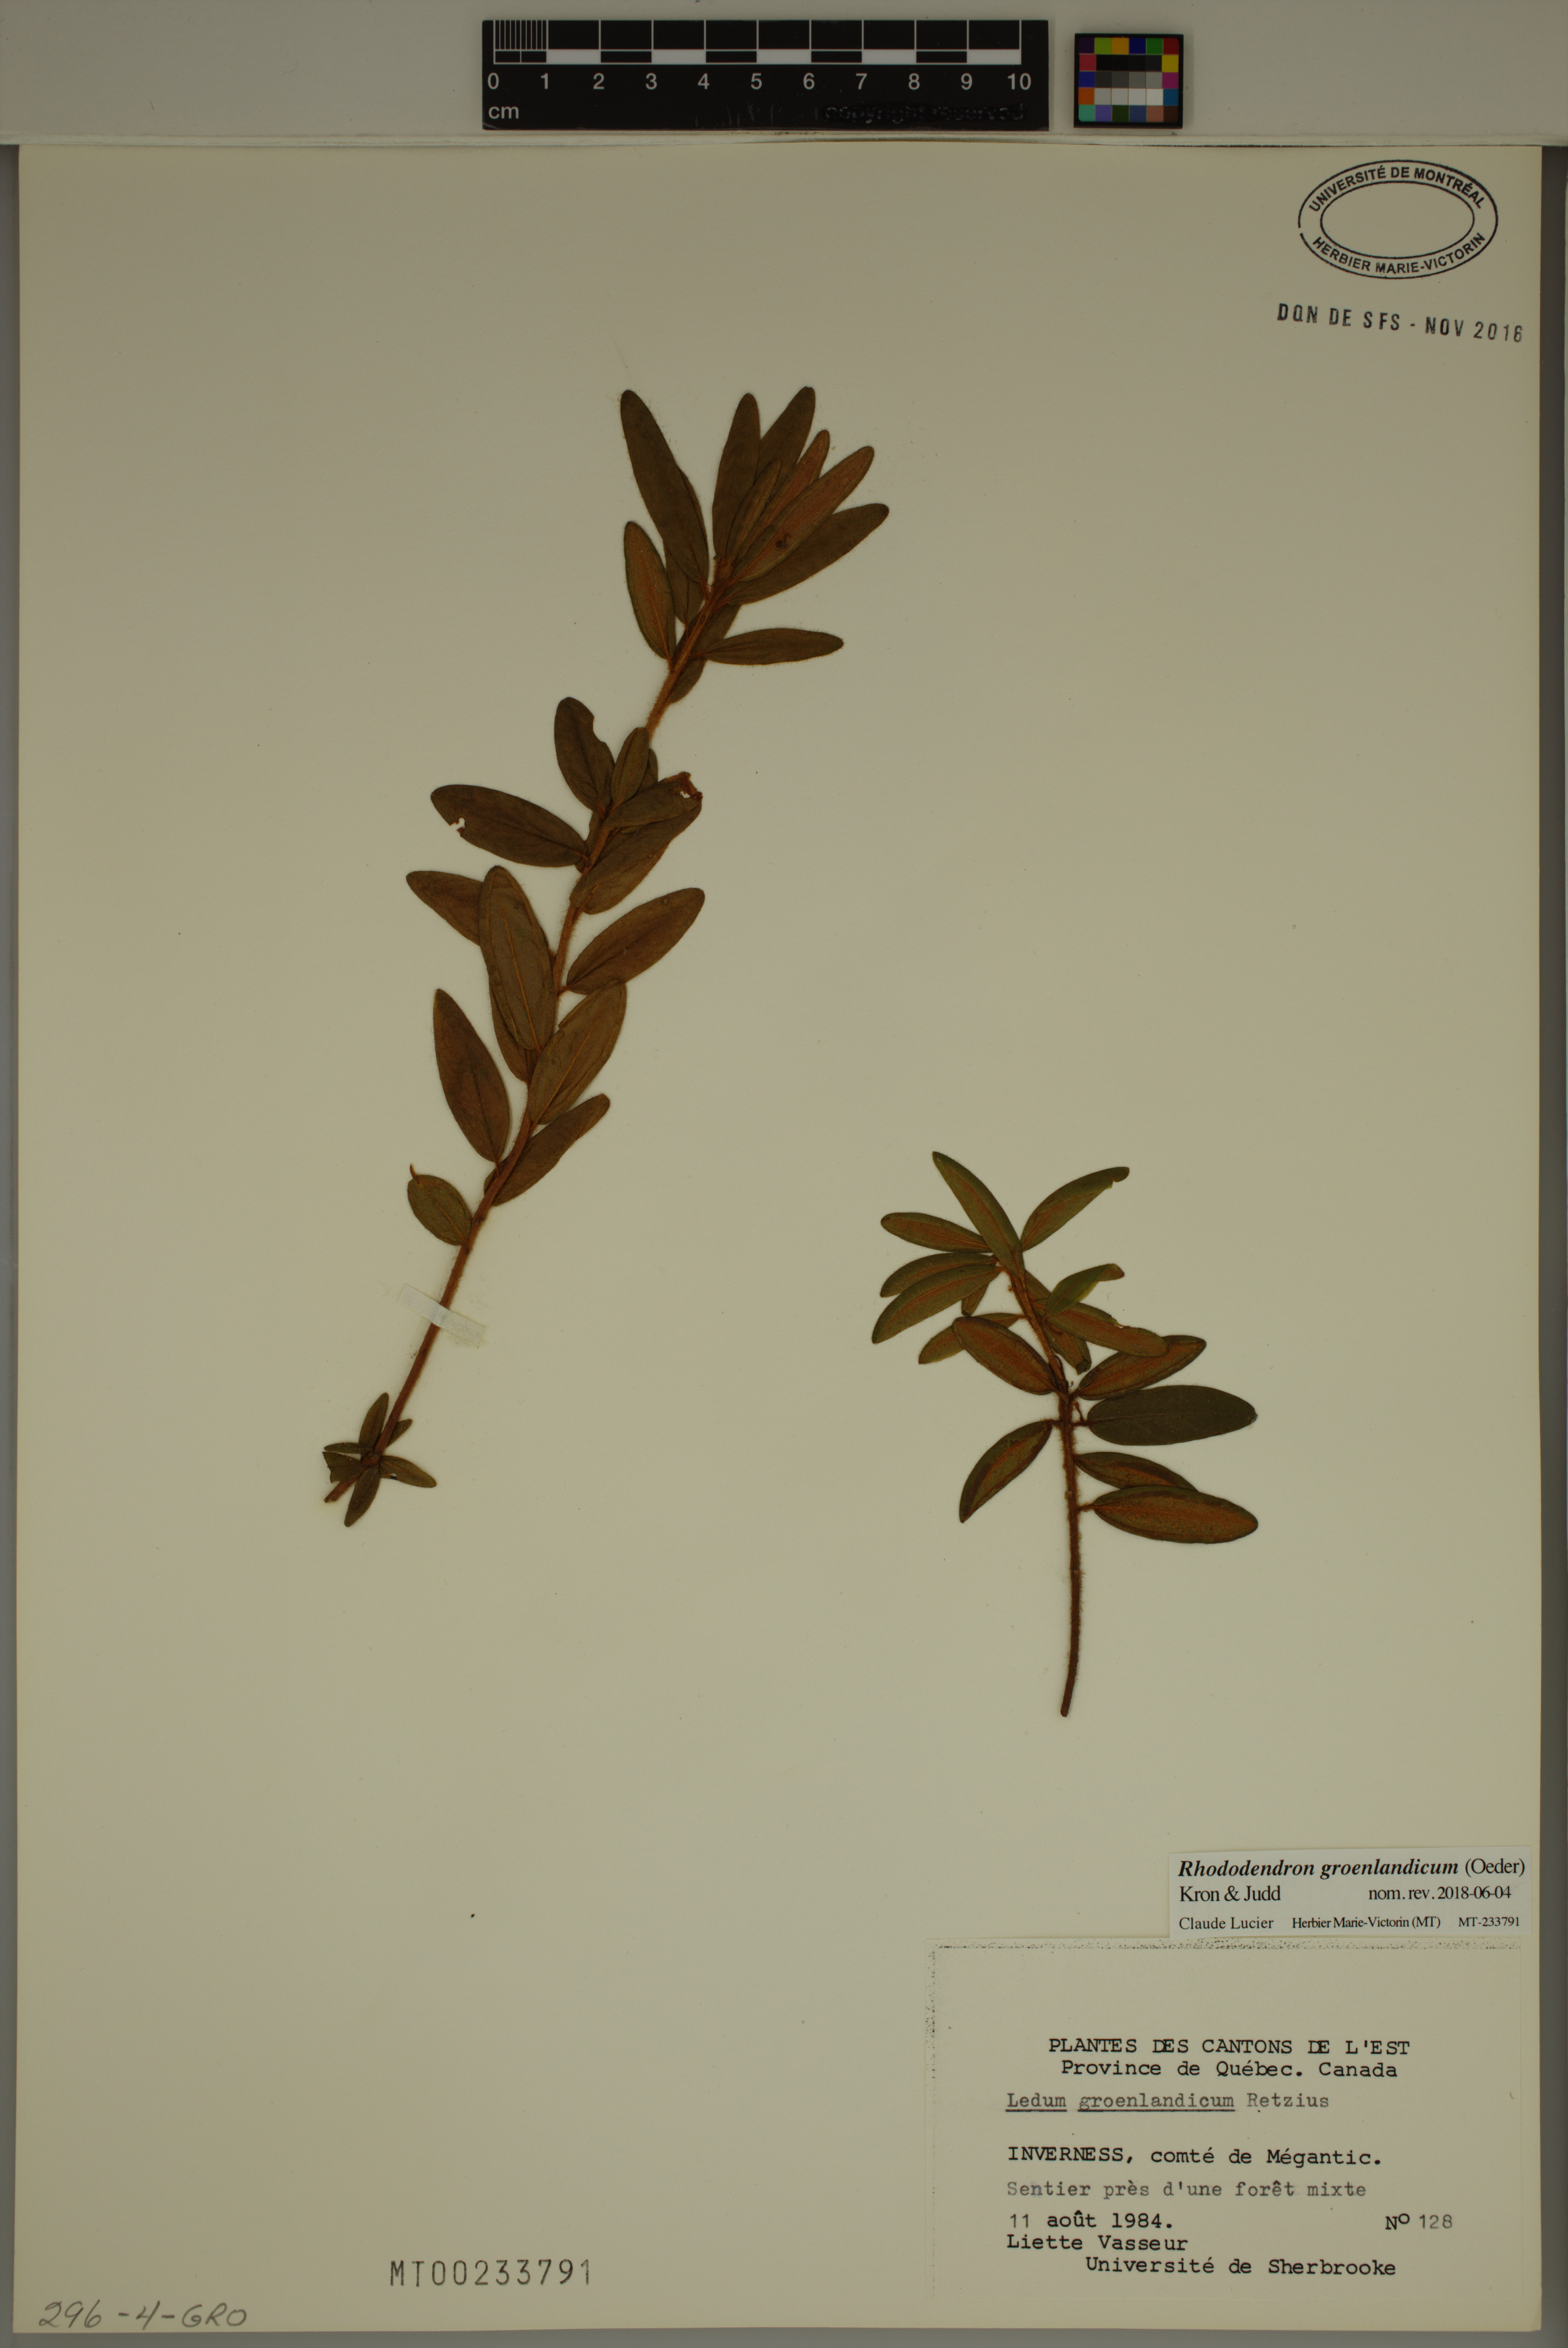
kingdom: Plantae
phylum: Tracheophyta
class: Magnoliopsida
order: Ericales
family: Ericaceae
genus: Rhododendron
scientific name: Rhododendron groenlandicum
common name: Bog labrador tea
